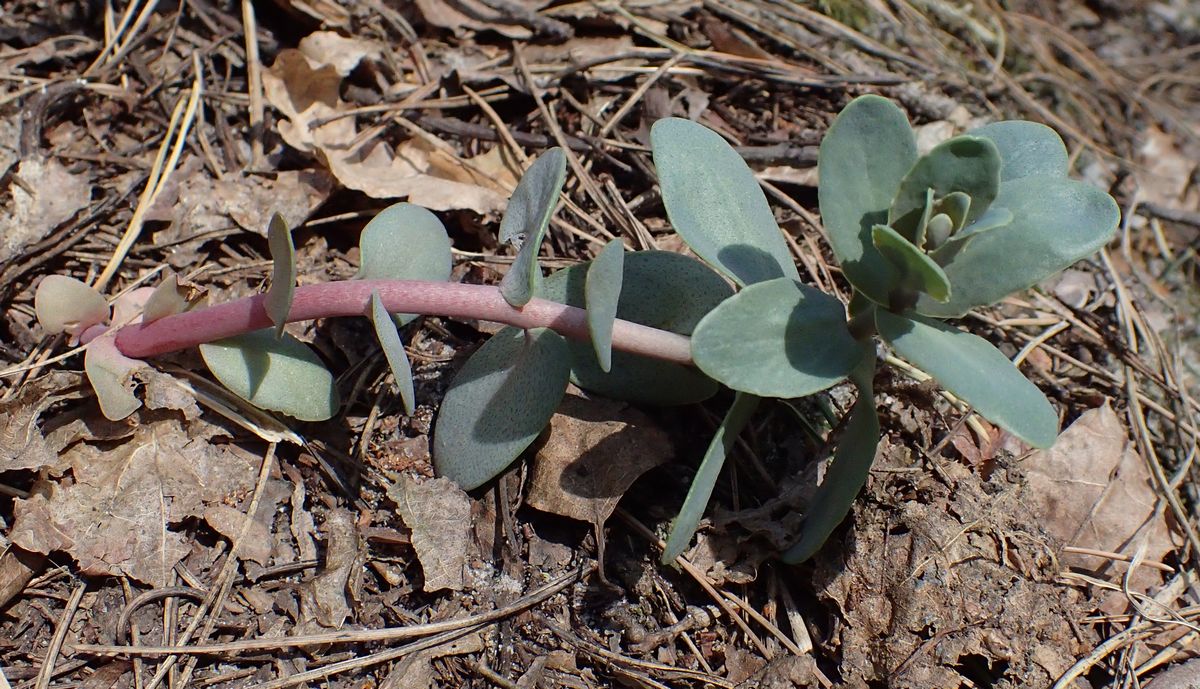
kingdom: Plantae
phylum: Tracheophyta
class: Magnoliopsida
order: Saxifragales
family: Crassulaceae
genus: Hylotelephium
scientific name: Hylotelephium telephium
